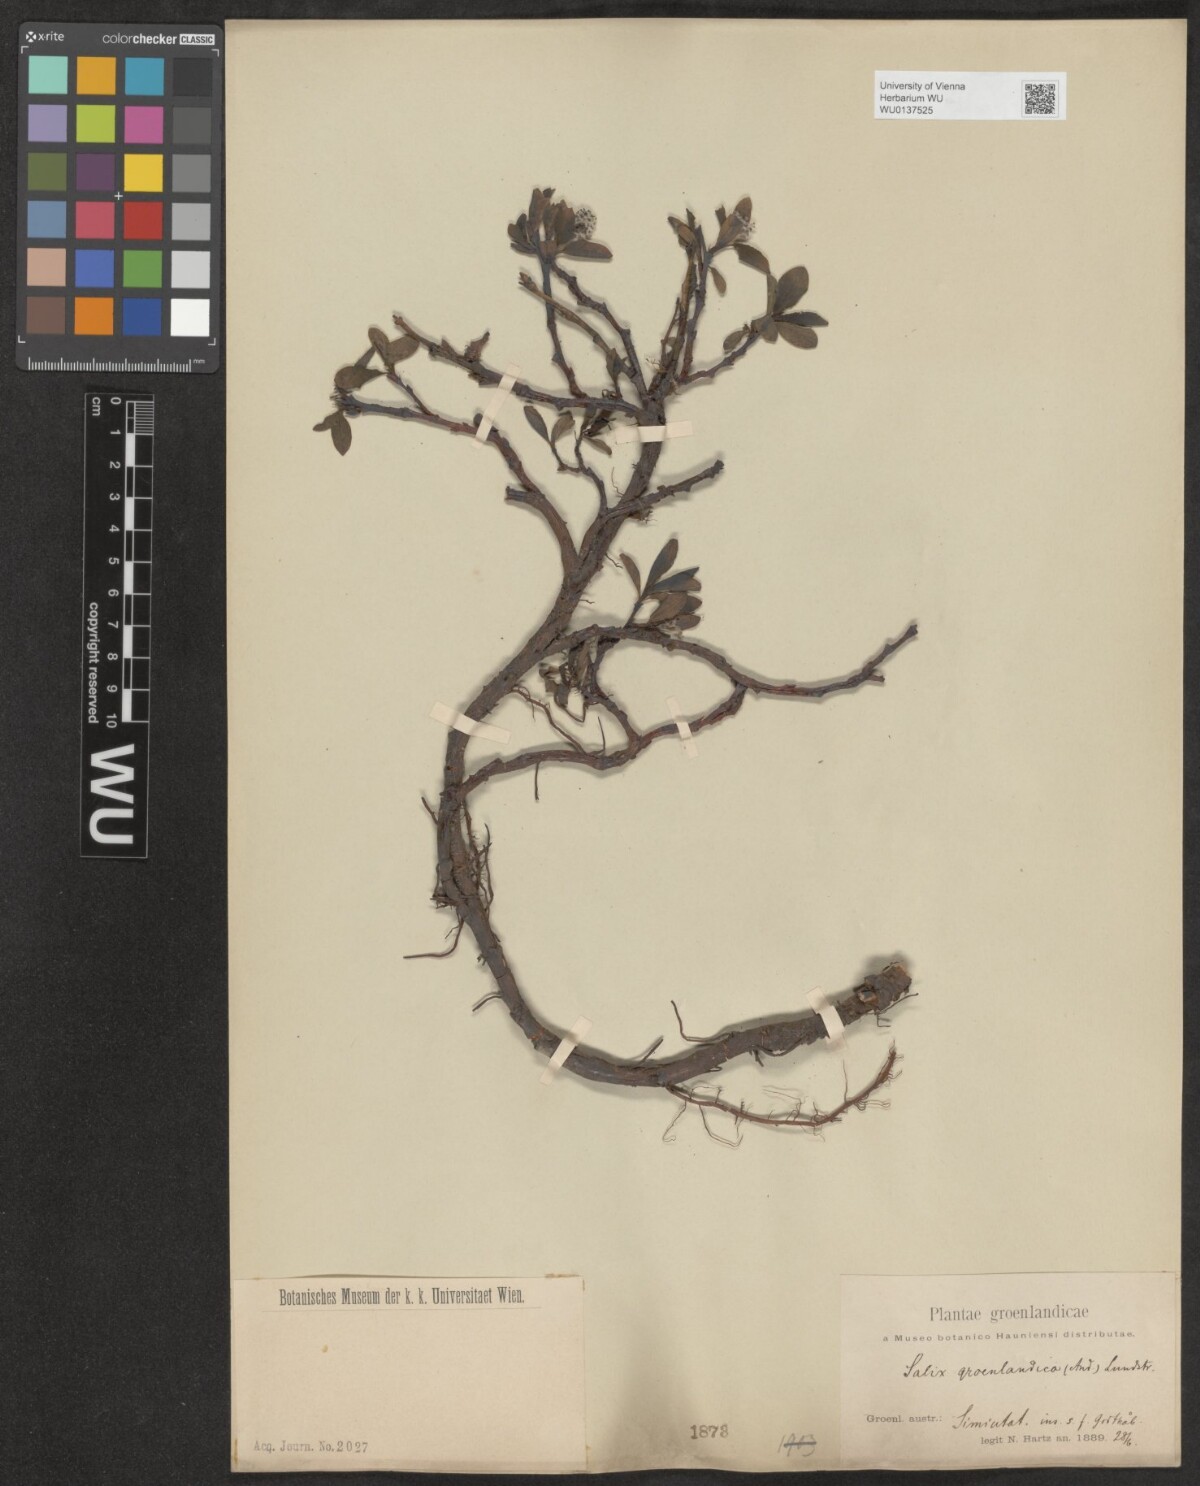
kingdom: Plantae
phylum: Tracheophyta
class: Magnoliopsida
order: Malpighiales
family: Salicaceae
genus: Salix
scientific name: Salix arctophila
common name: Greenland willow
